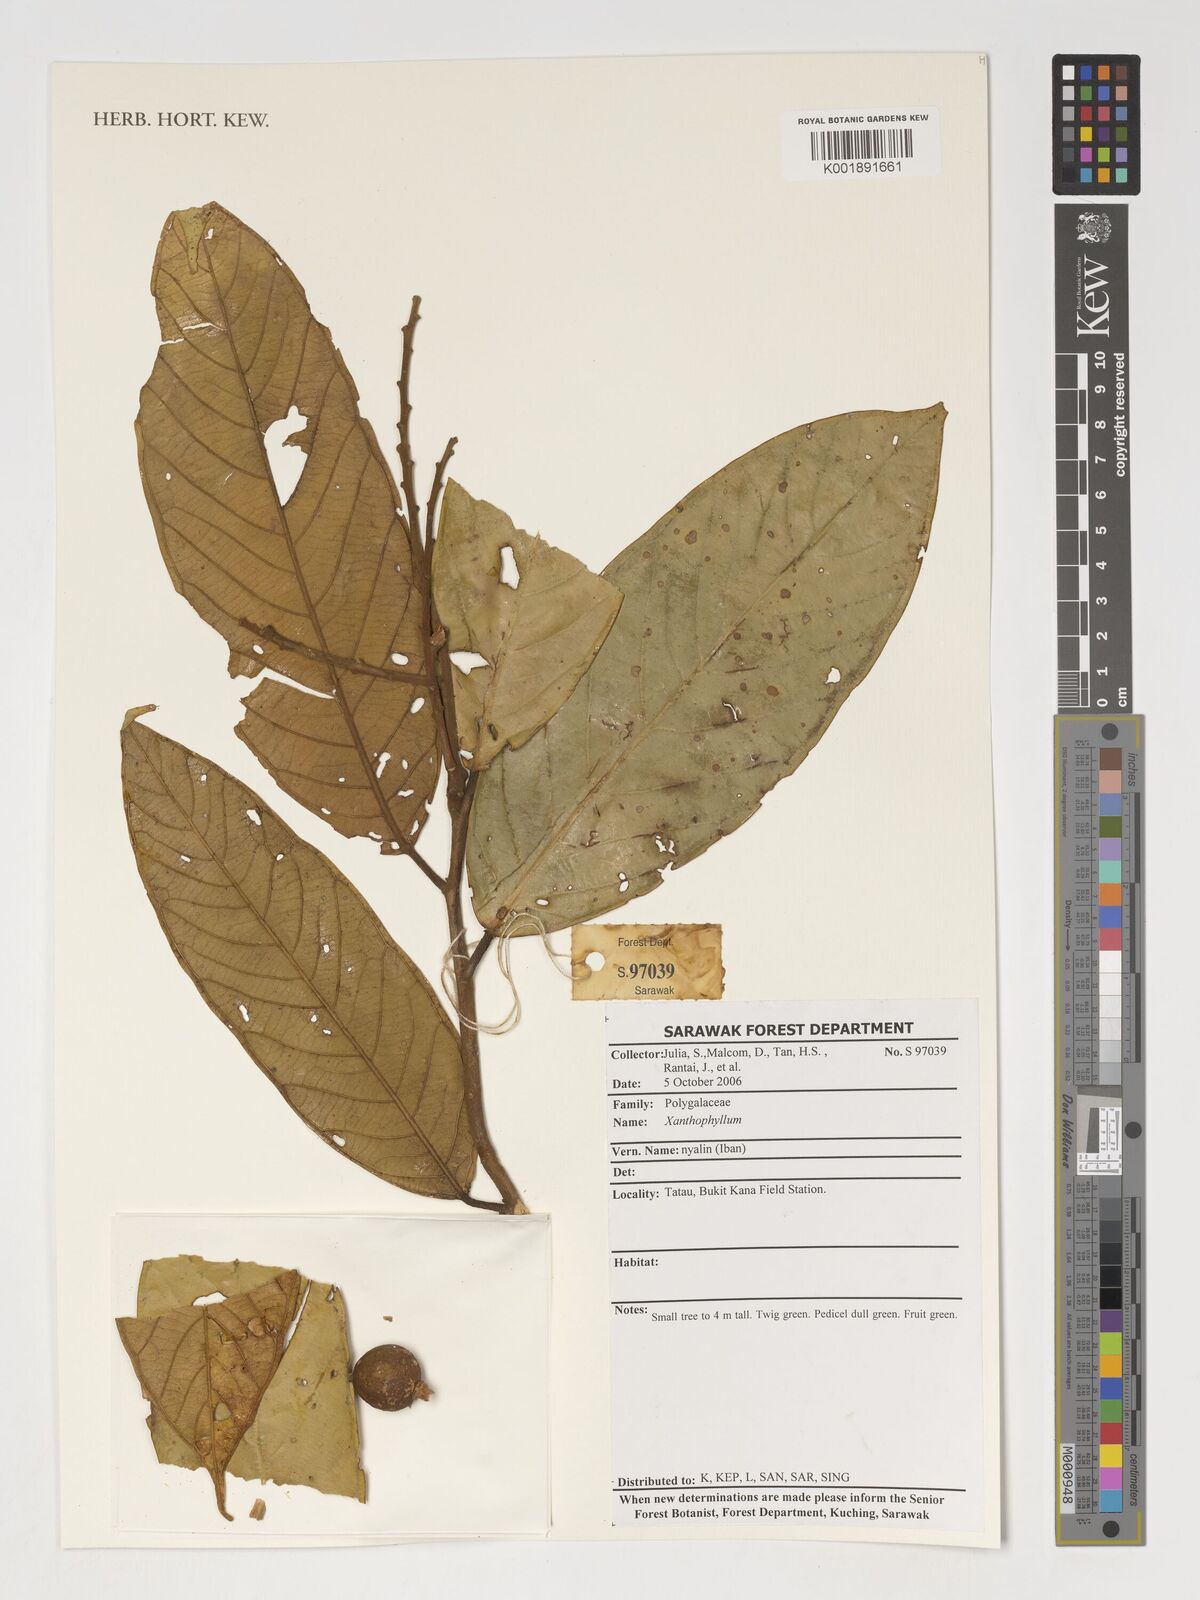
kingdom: Plantae
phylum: Tracheophyta
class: Magnoliopsida
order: Fabales
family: Polygalaceae
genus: Xanthophyllum
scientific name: Xanthophyllum
